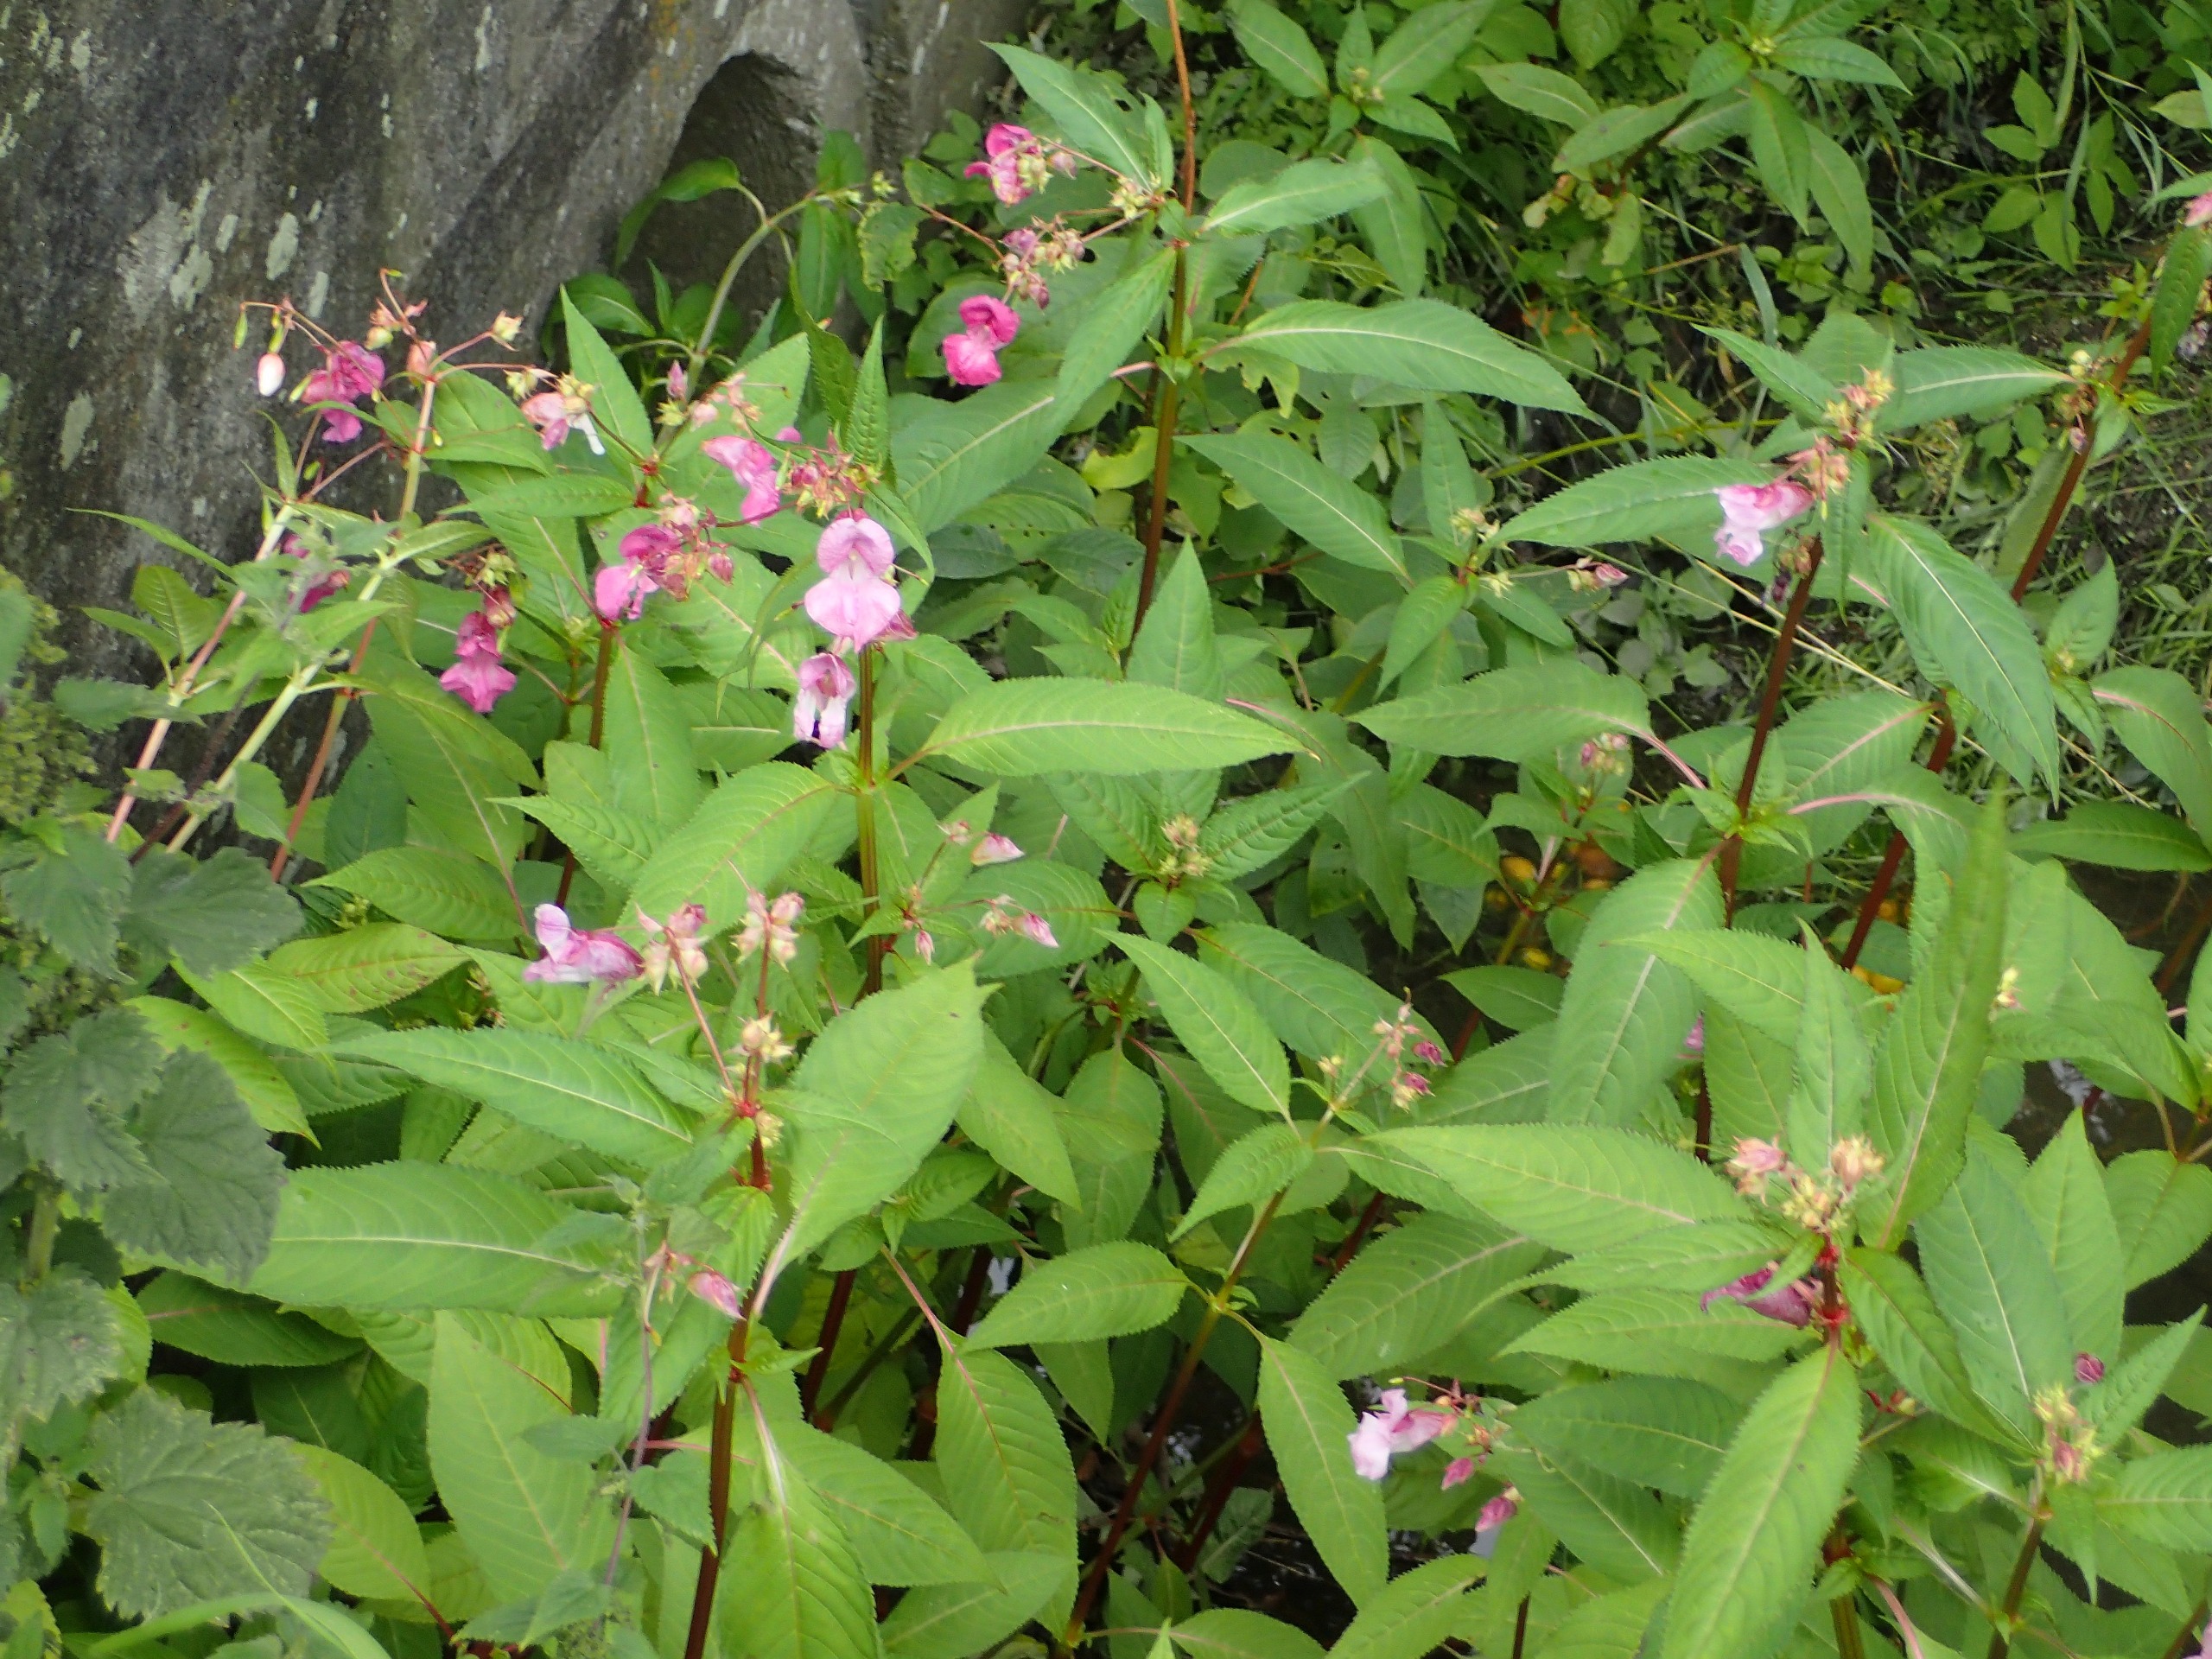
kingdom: Plantae
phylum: Tracheophyta
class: Magnoliopsida
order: Ericales
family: Balsaminaceae
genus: Impatiens
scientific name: Impatiens glandulifera
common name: Kæmpe-balsamin
